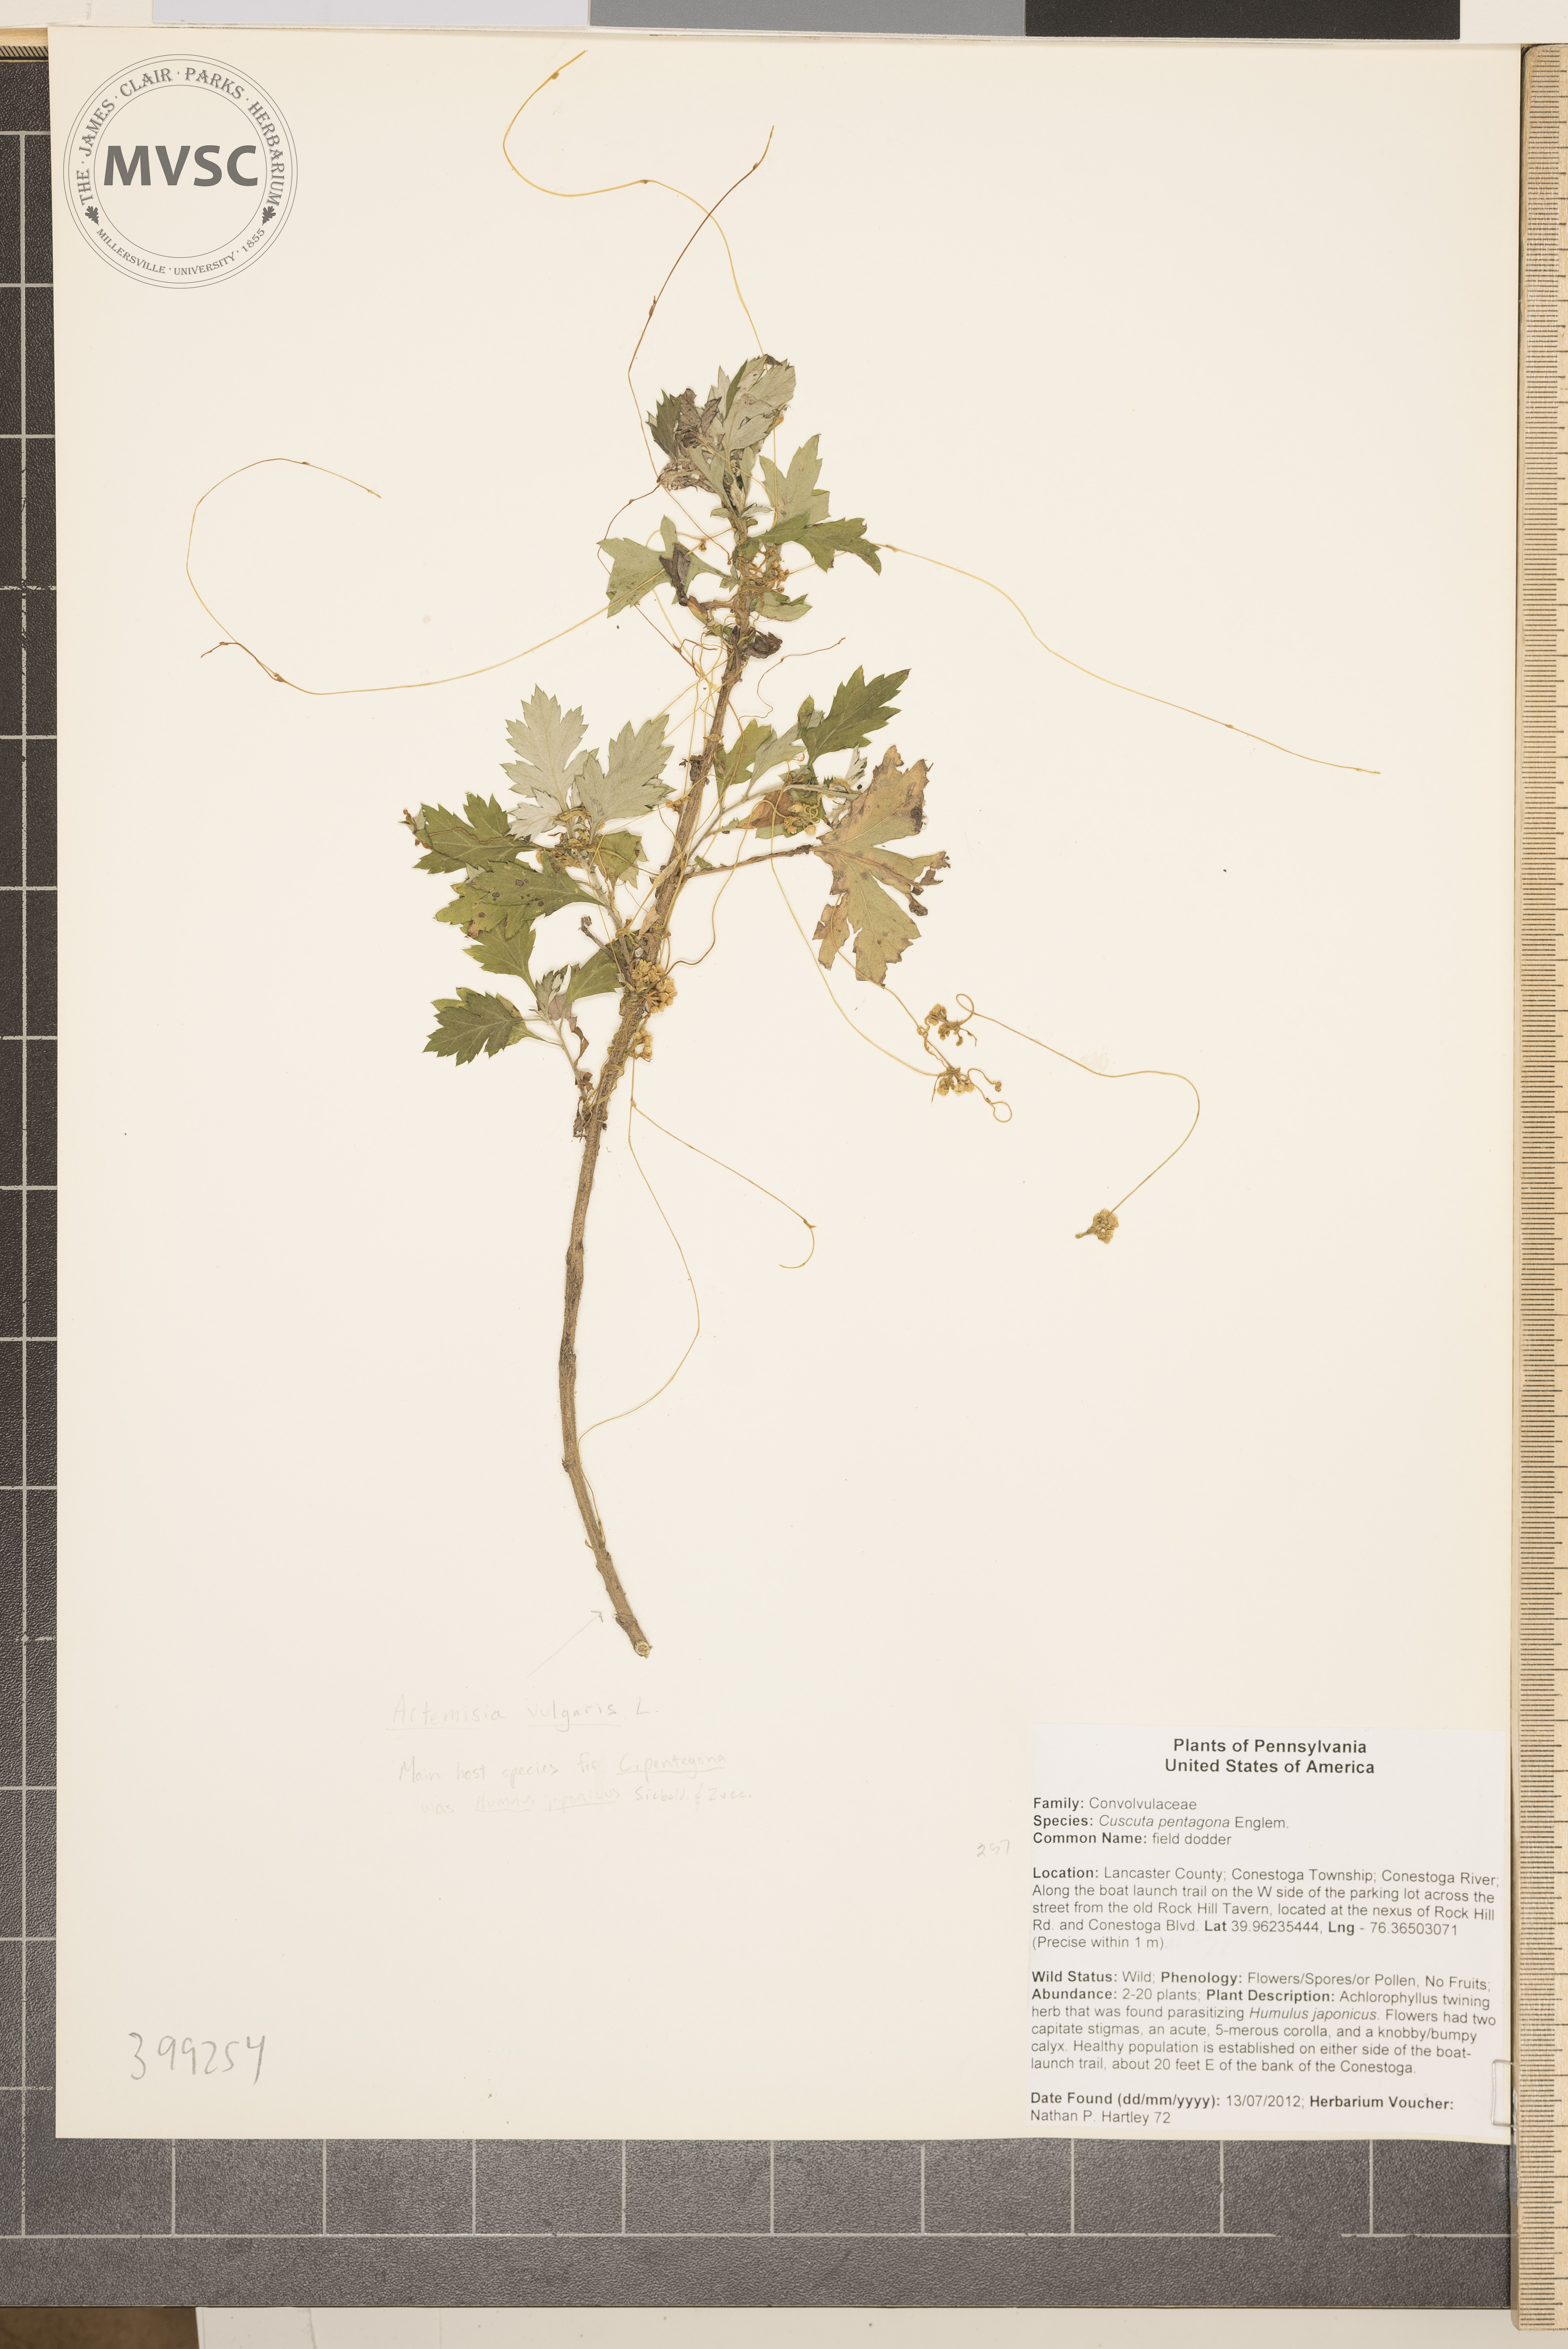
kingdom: Plantae
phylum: Tracheophyta
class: Magnoliopsida
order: Solanales
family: Convolvulaceae
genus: Cuscuta
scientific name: Cuscuta pentagona
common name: Field dodder
